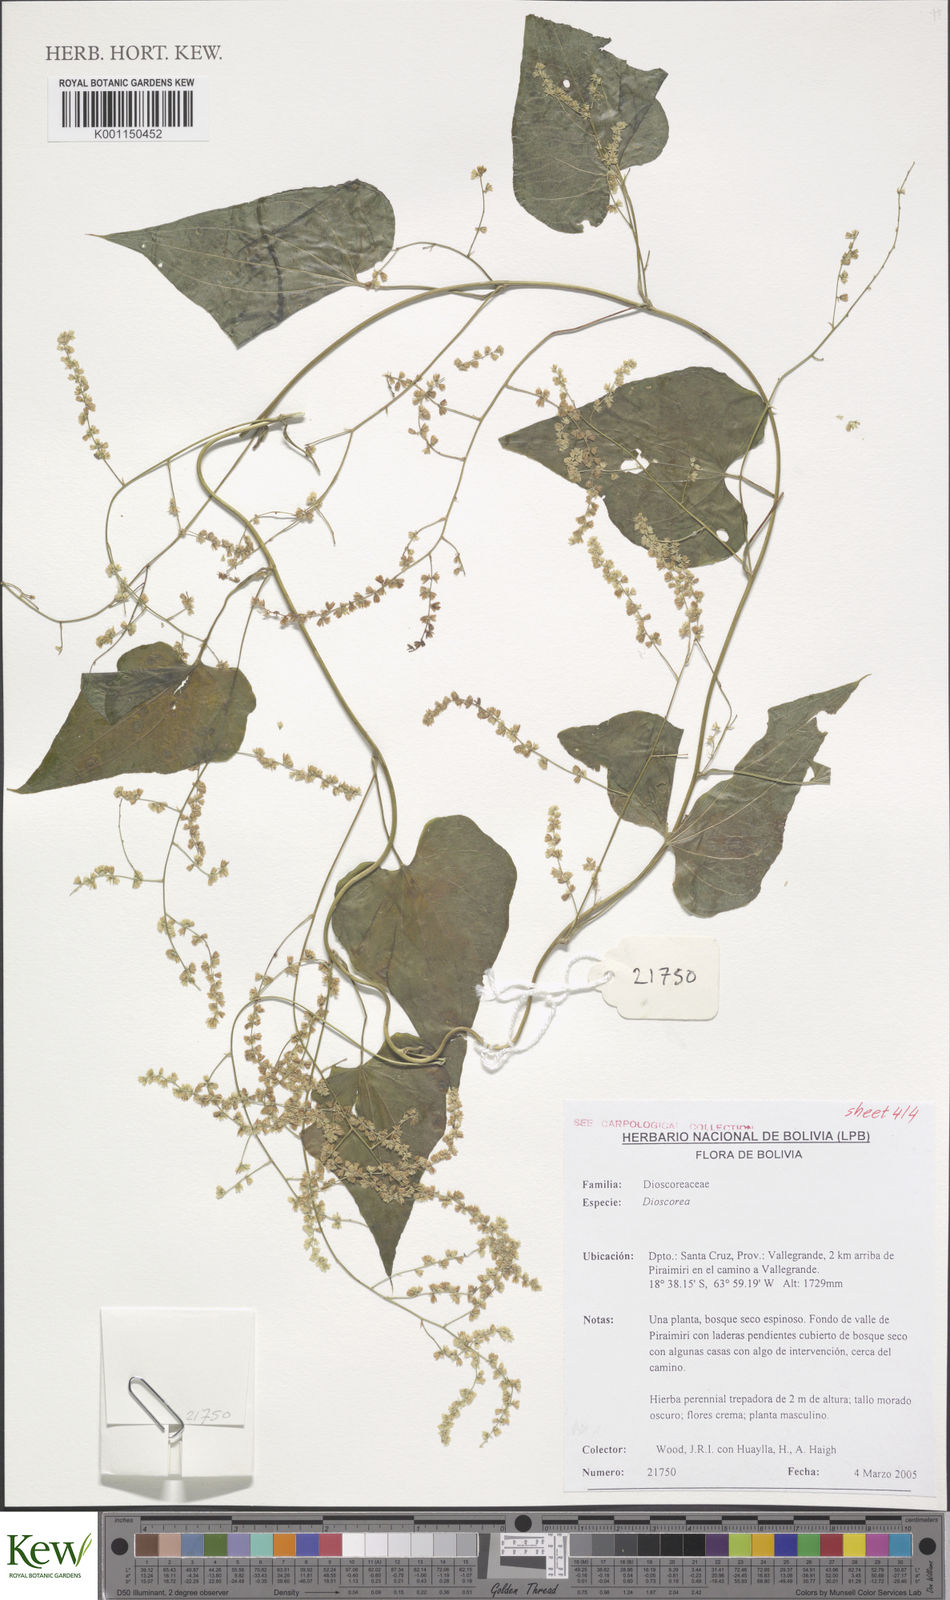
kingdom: Plantae
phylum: Tracheophyta
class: Liliopsida
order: Dioscoreales
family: Dioscoreaceae
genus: Dioscorea
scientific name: Dioscorea sinuata
